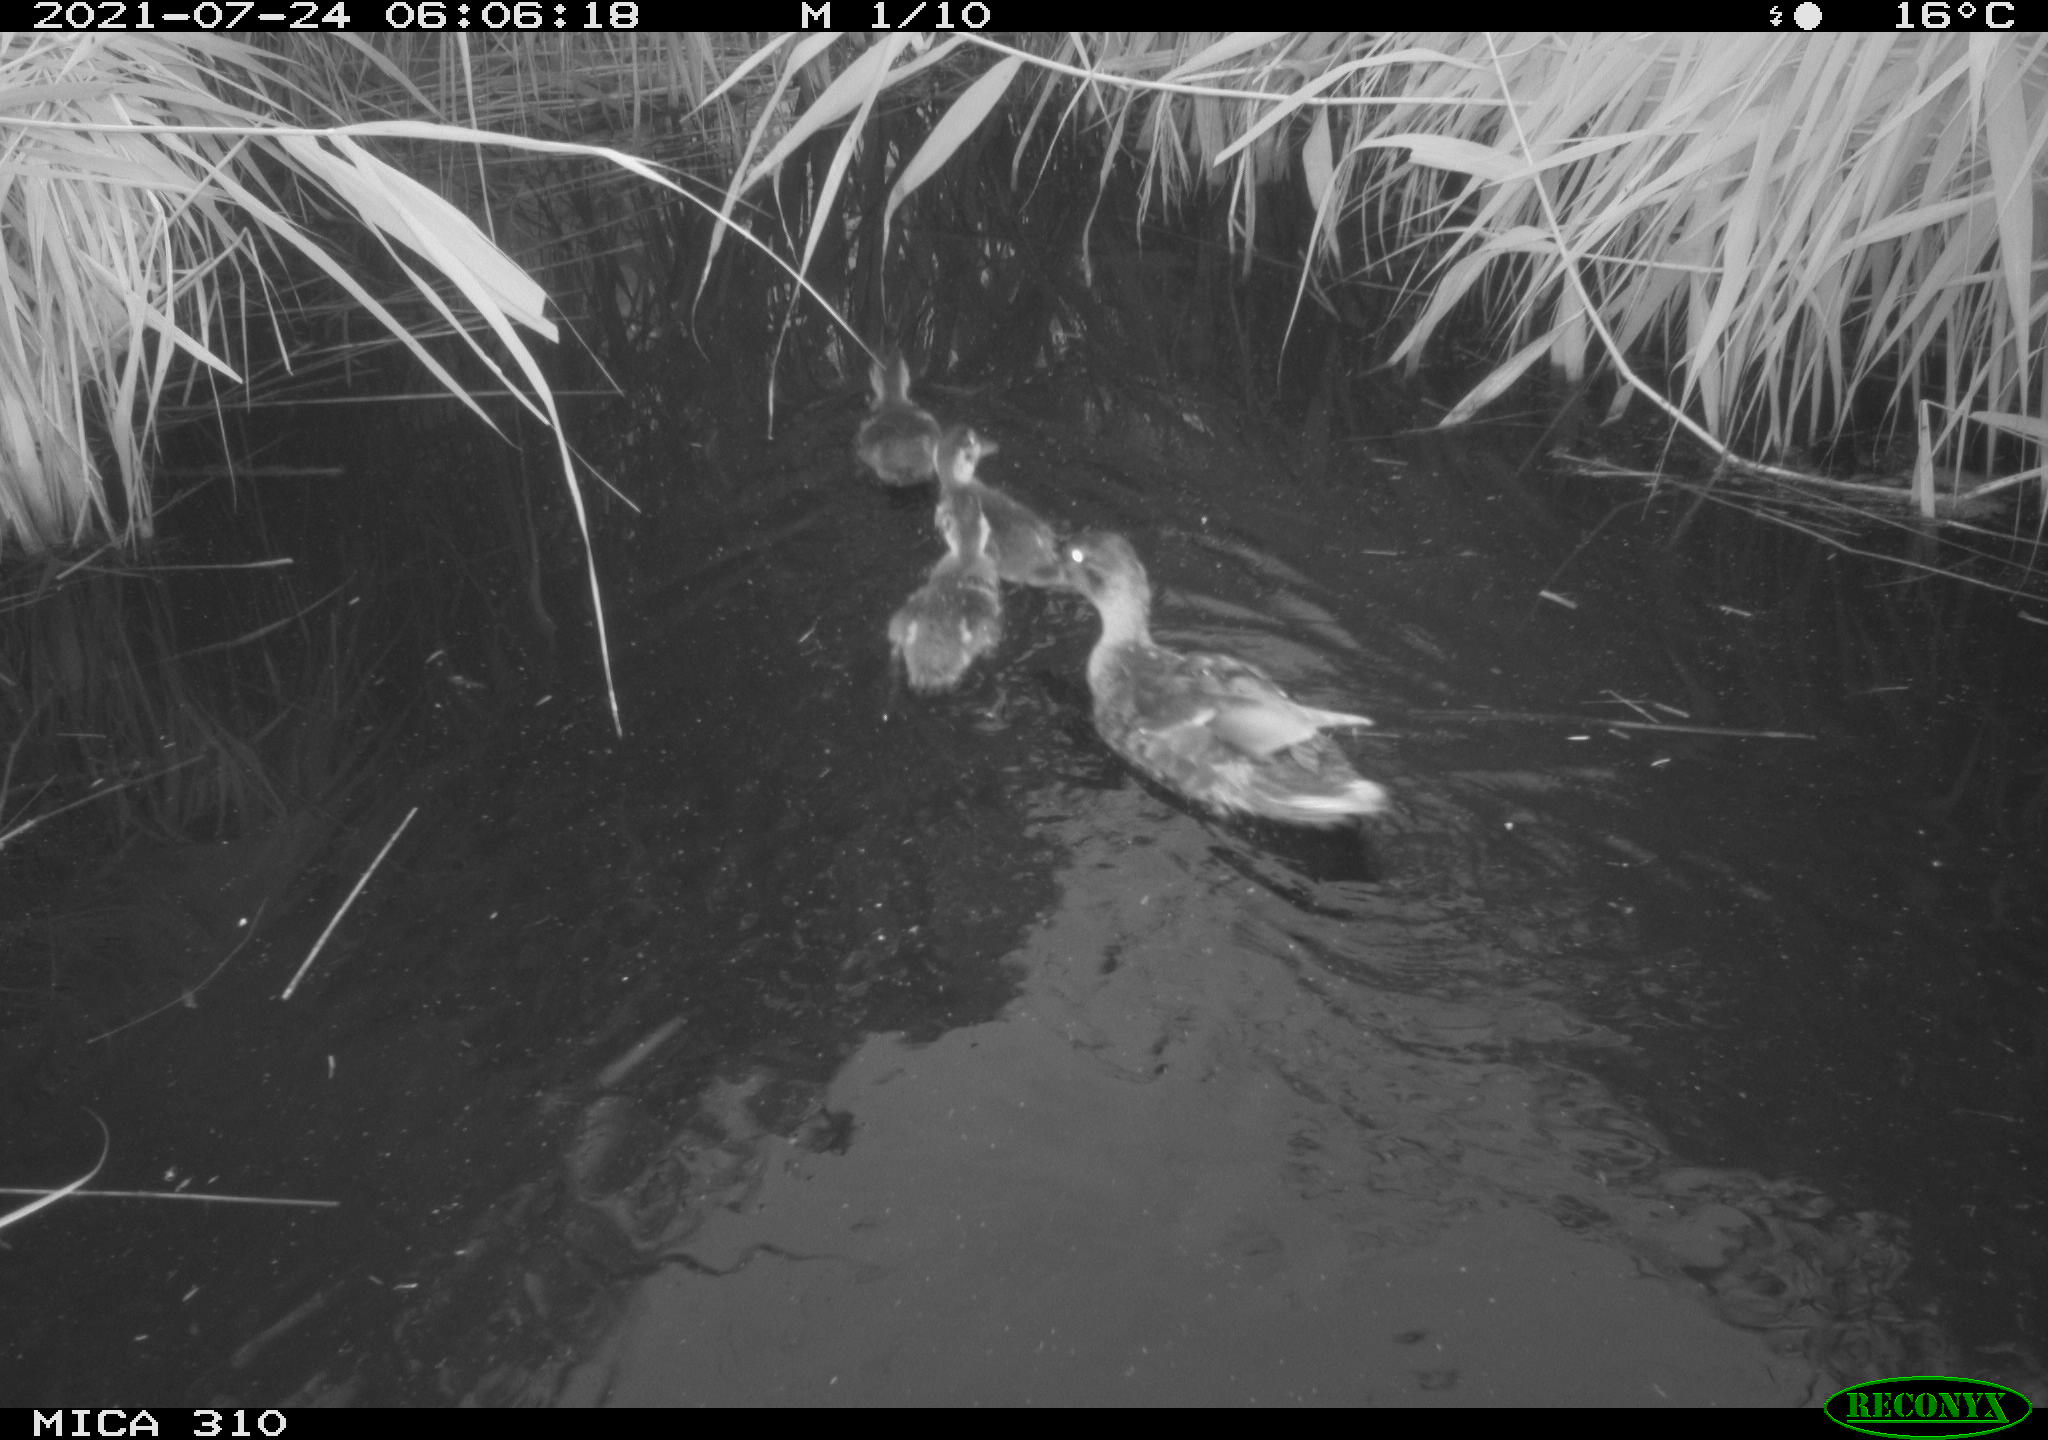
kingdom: Animalia
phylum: Chordata
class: Aves
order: Anseriformes
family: Anatidae
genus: Anas
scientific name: Anas platyrhynchos
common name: Mallard
